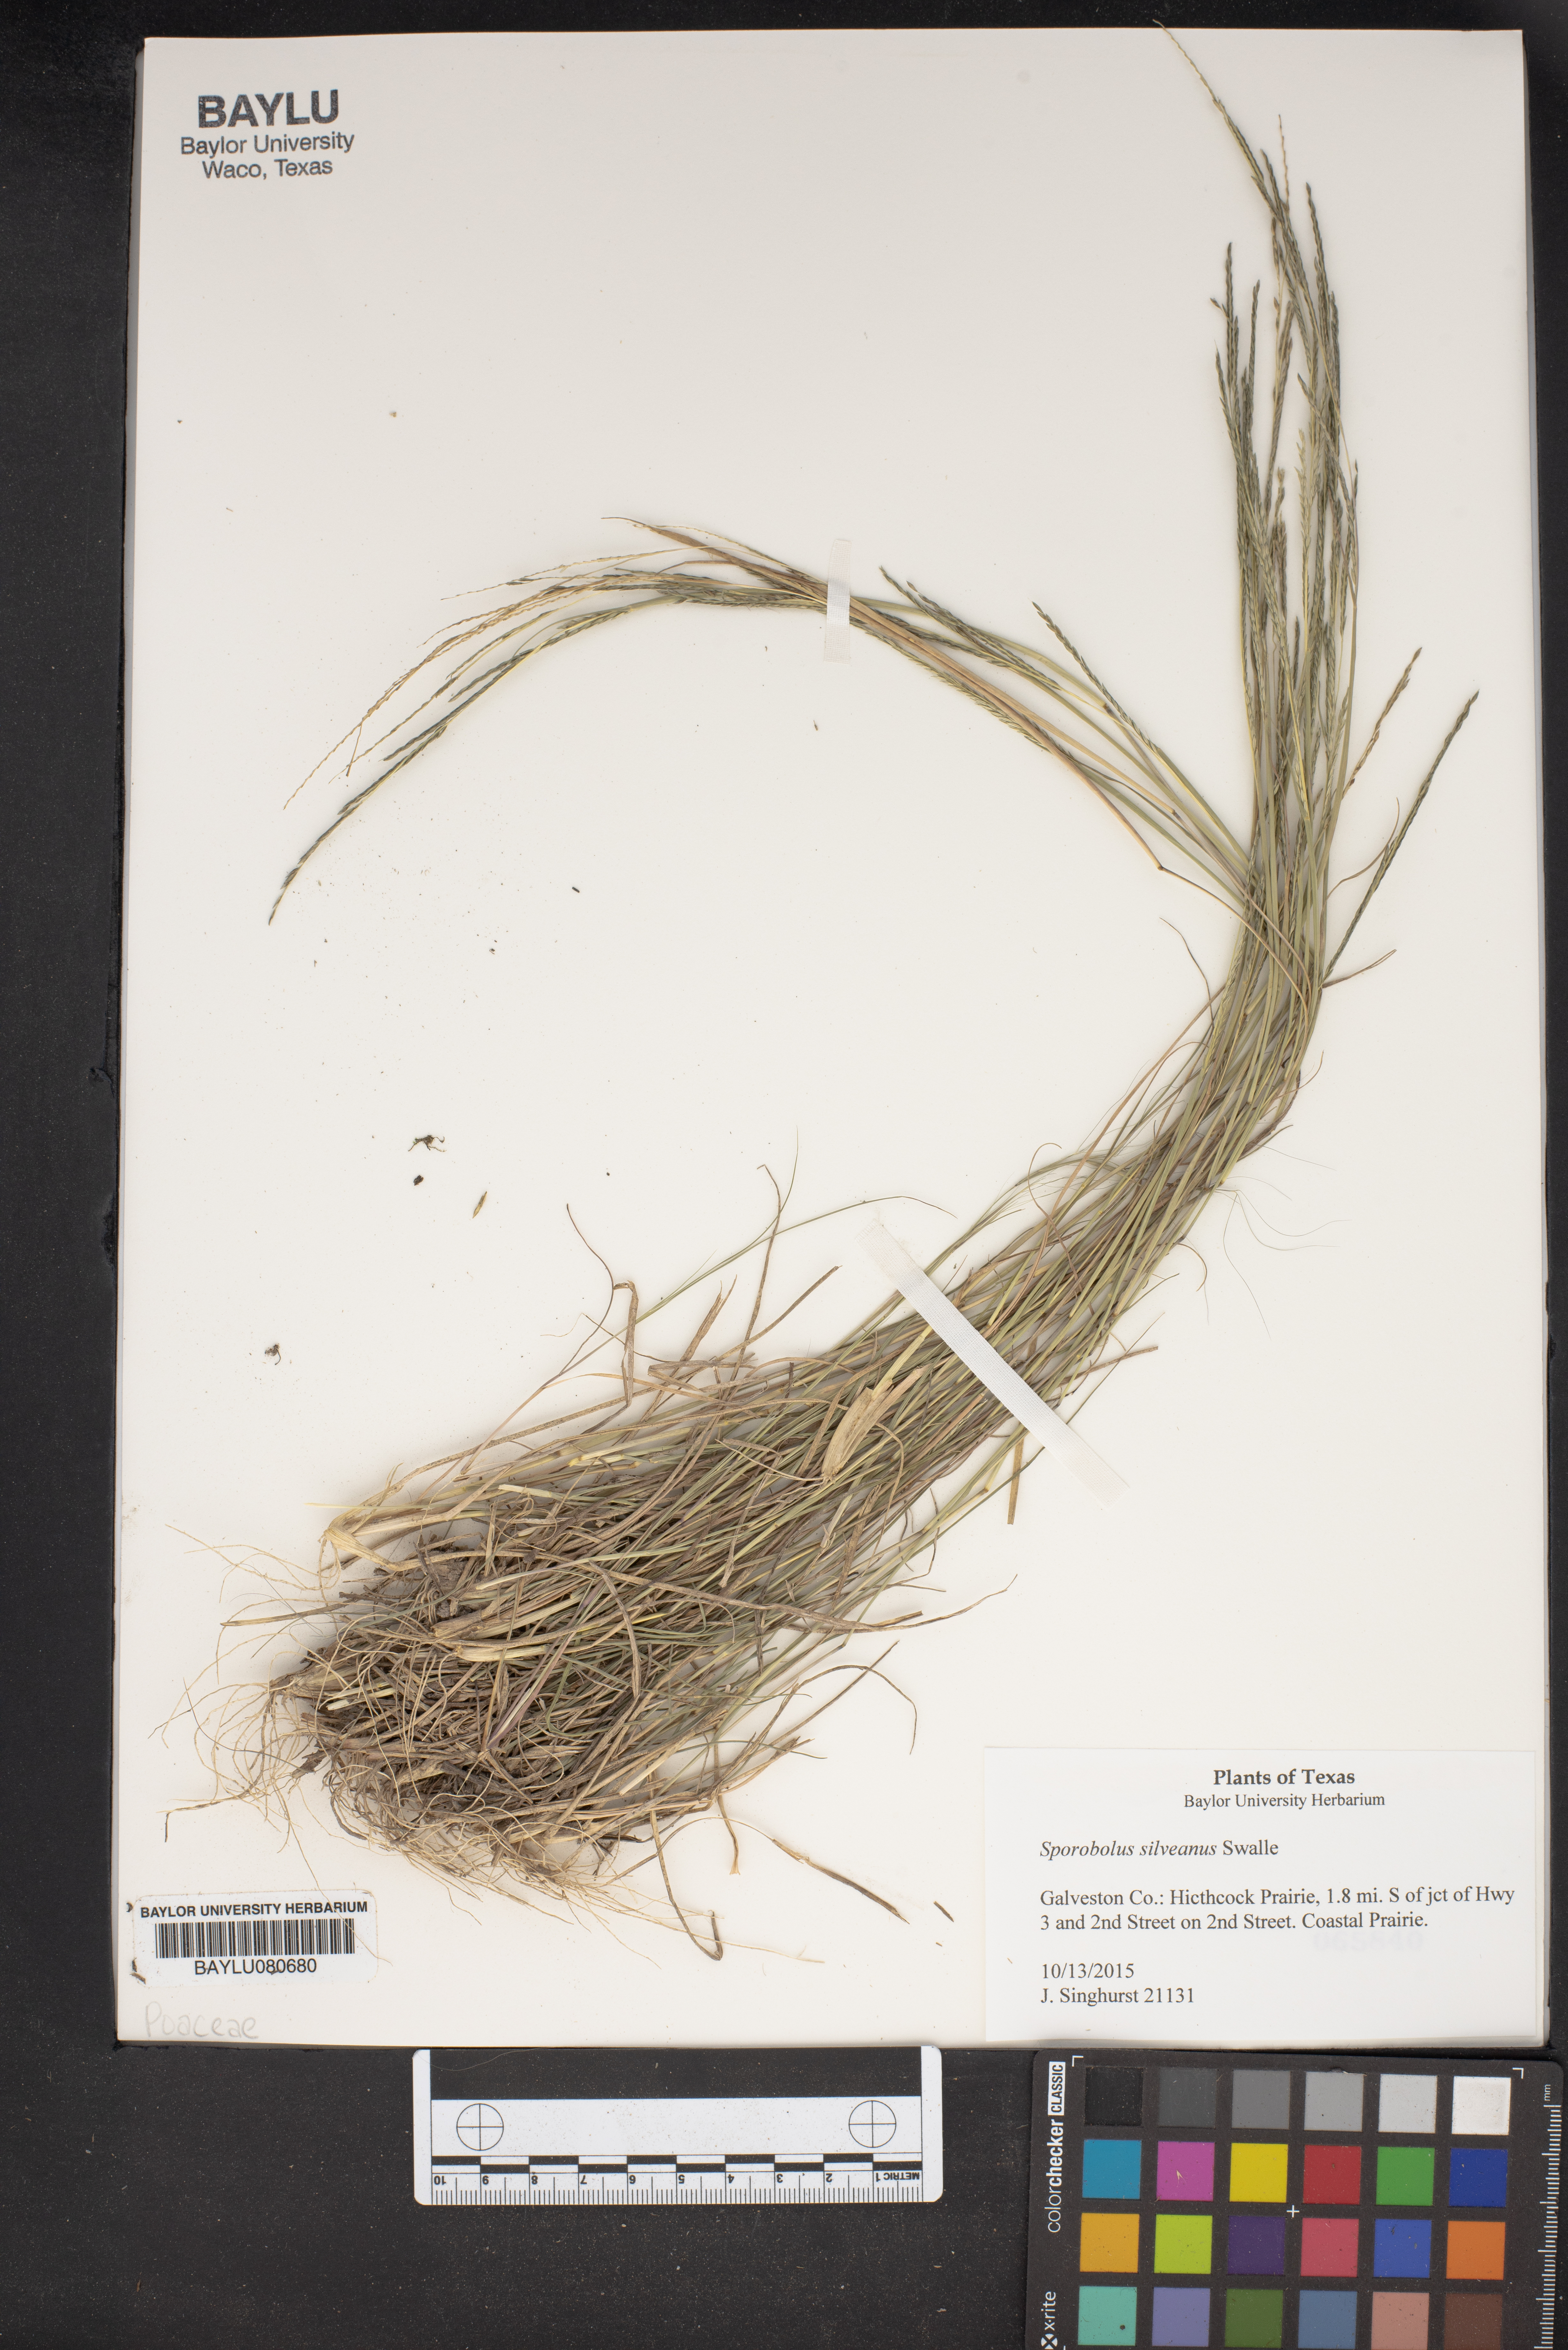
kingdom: Plantae
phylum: Tracheophyta
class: Liliopsida
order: Poales
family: Poaceae
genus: Sporobolus
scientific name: Sporobolus silveanus
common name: Silveus's dropseed
